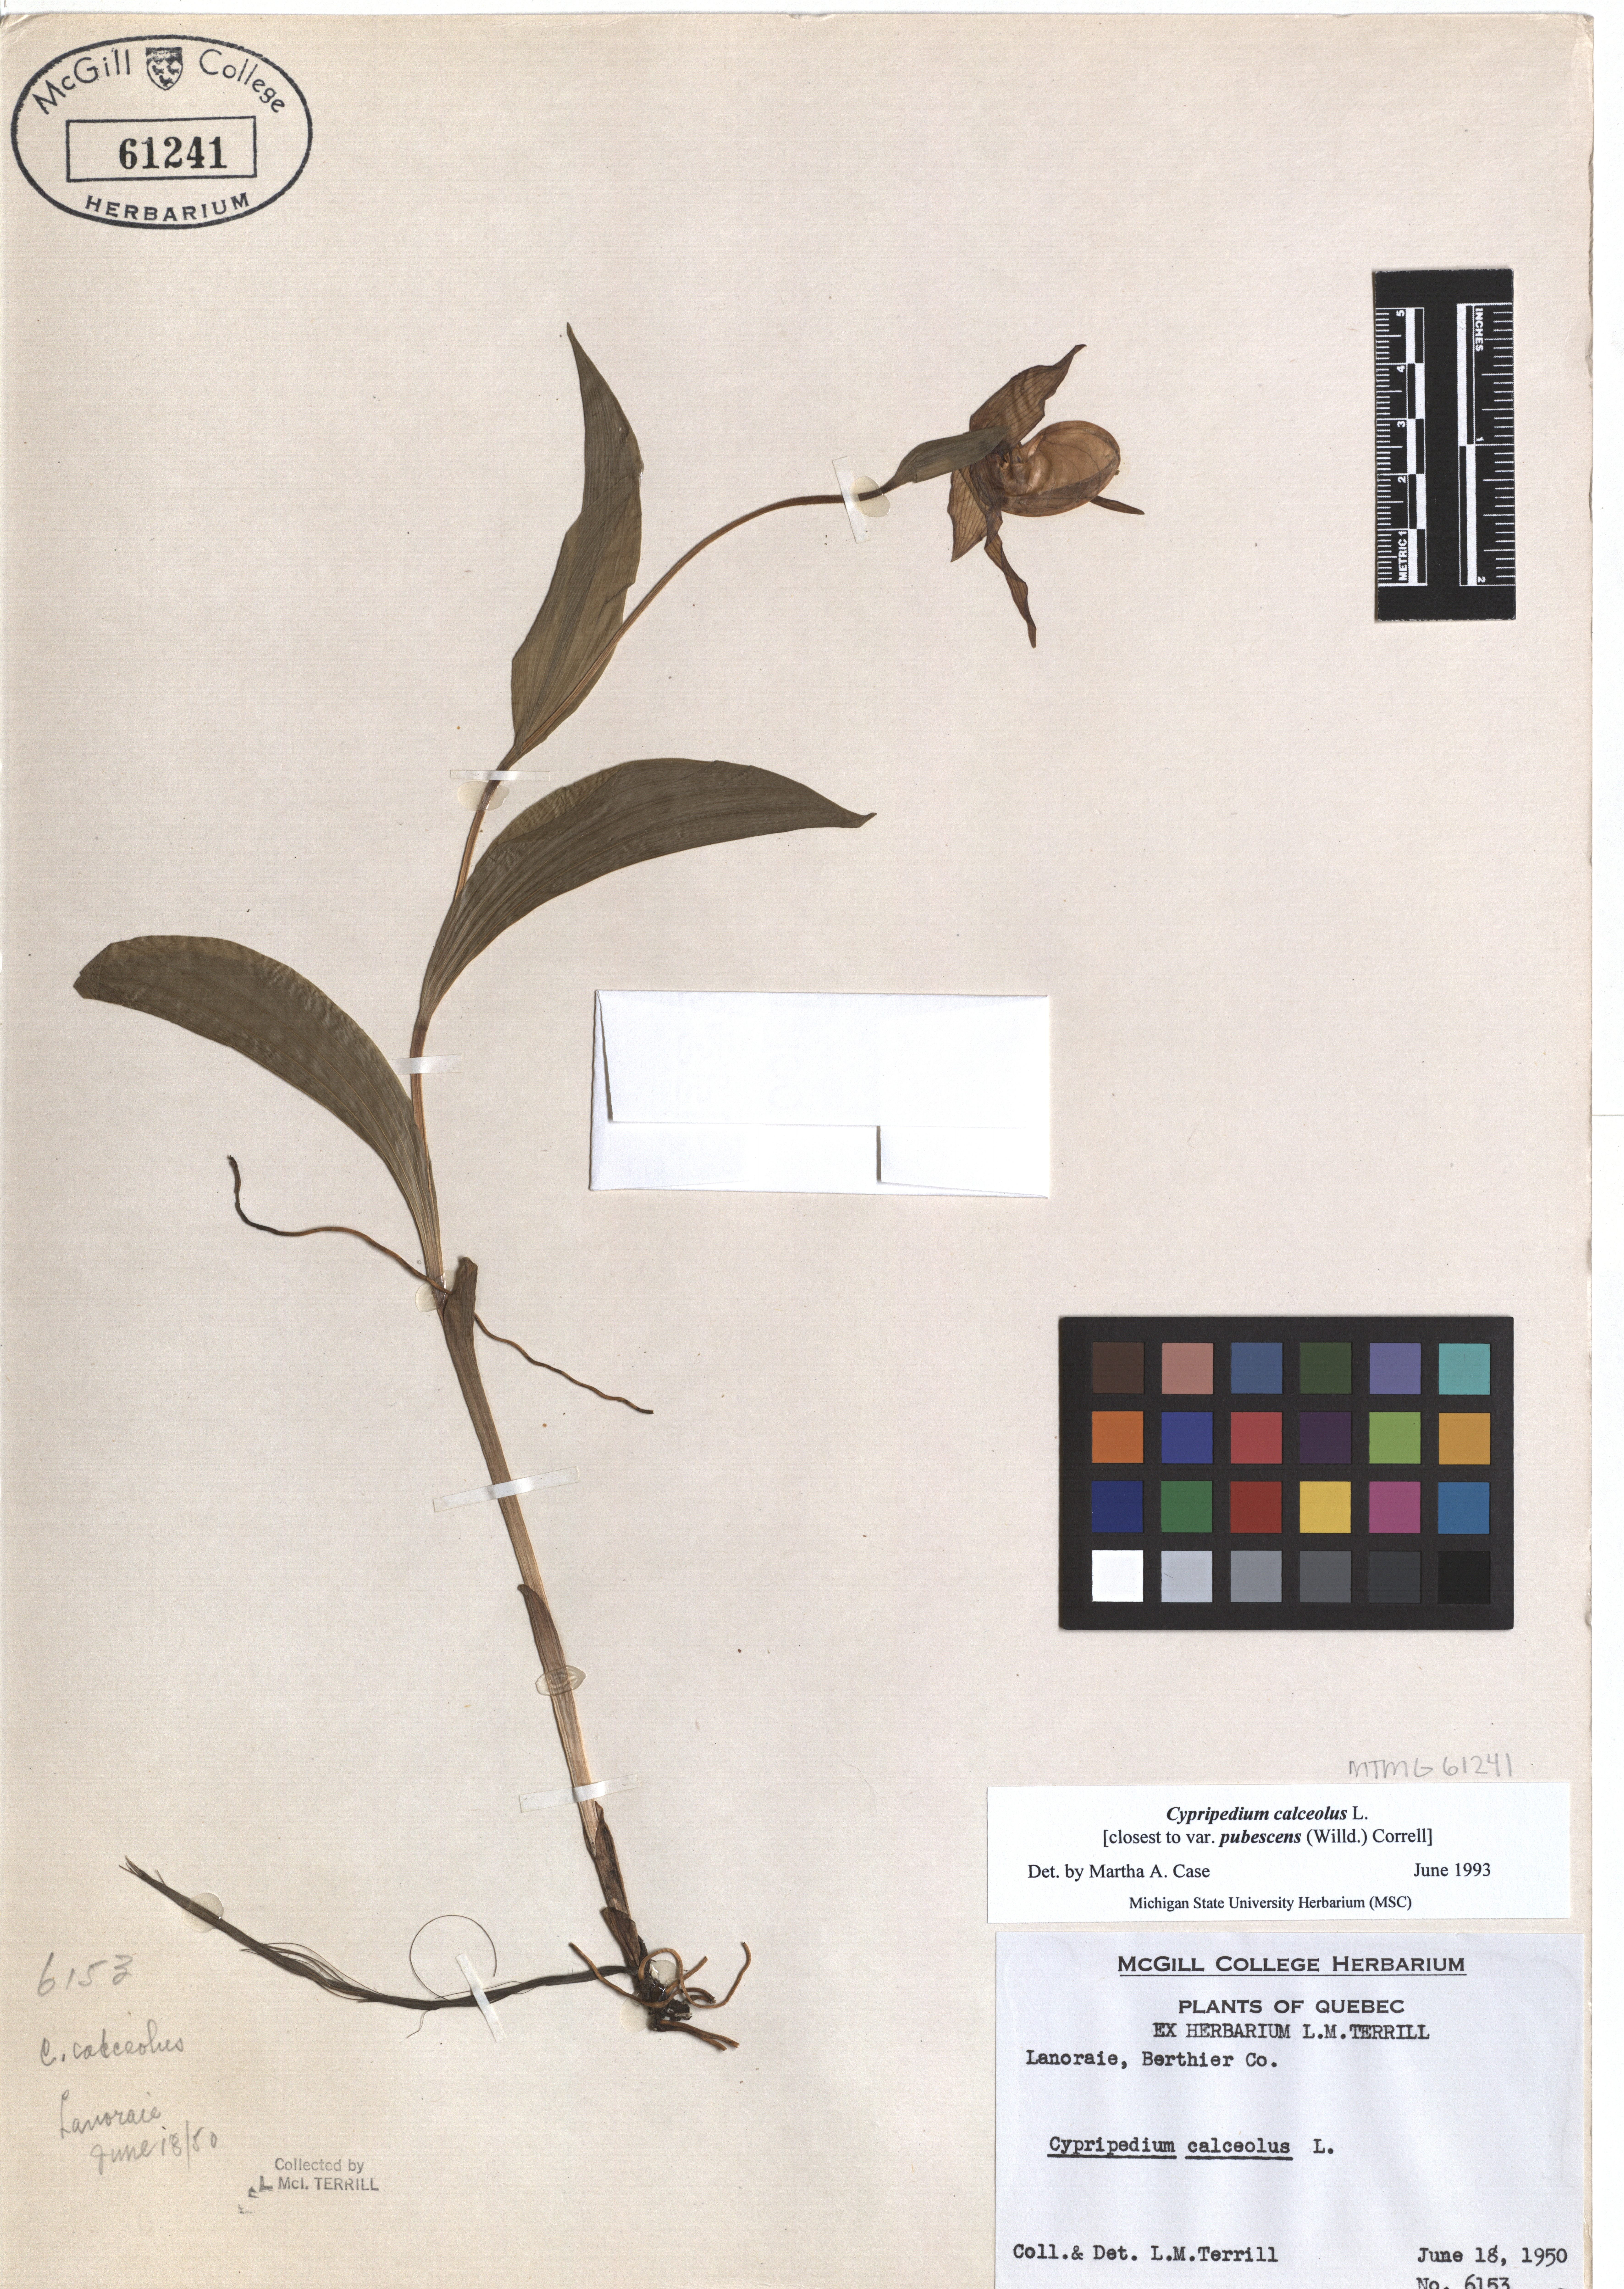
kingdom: Plantae
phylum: Tracheophyta
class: Liliopsida
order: Asparagales
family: Orchidaceae
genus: Cypripedium
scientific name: Cypripedium calceolus
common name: Lady's-slipper
